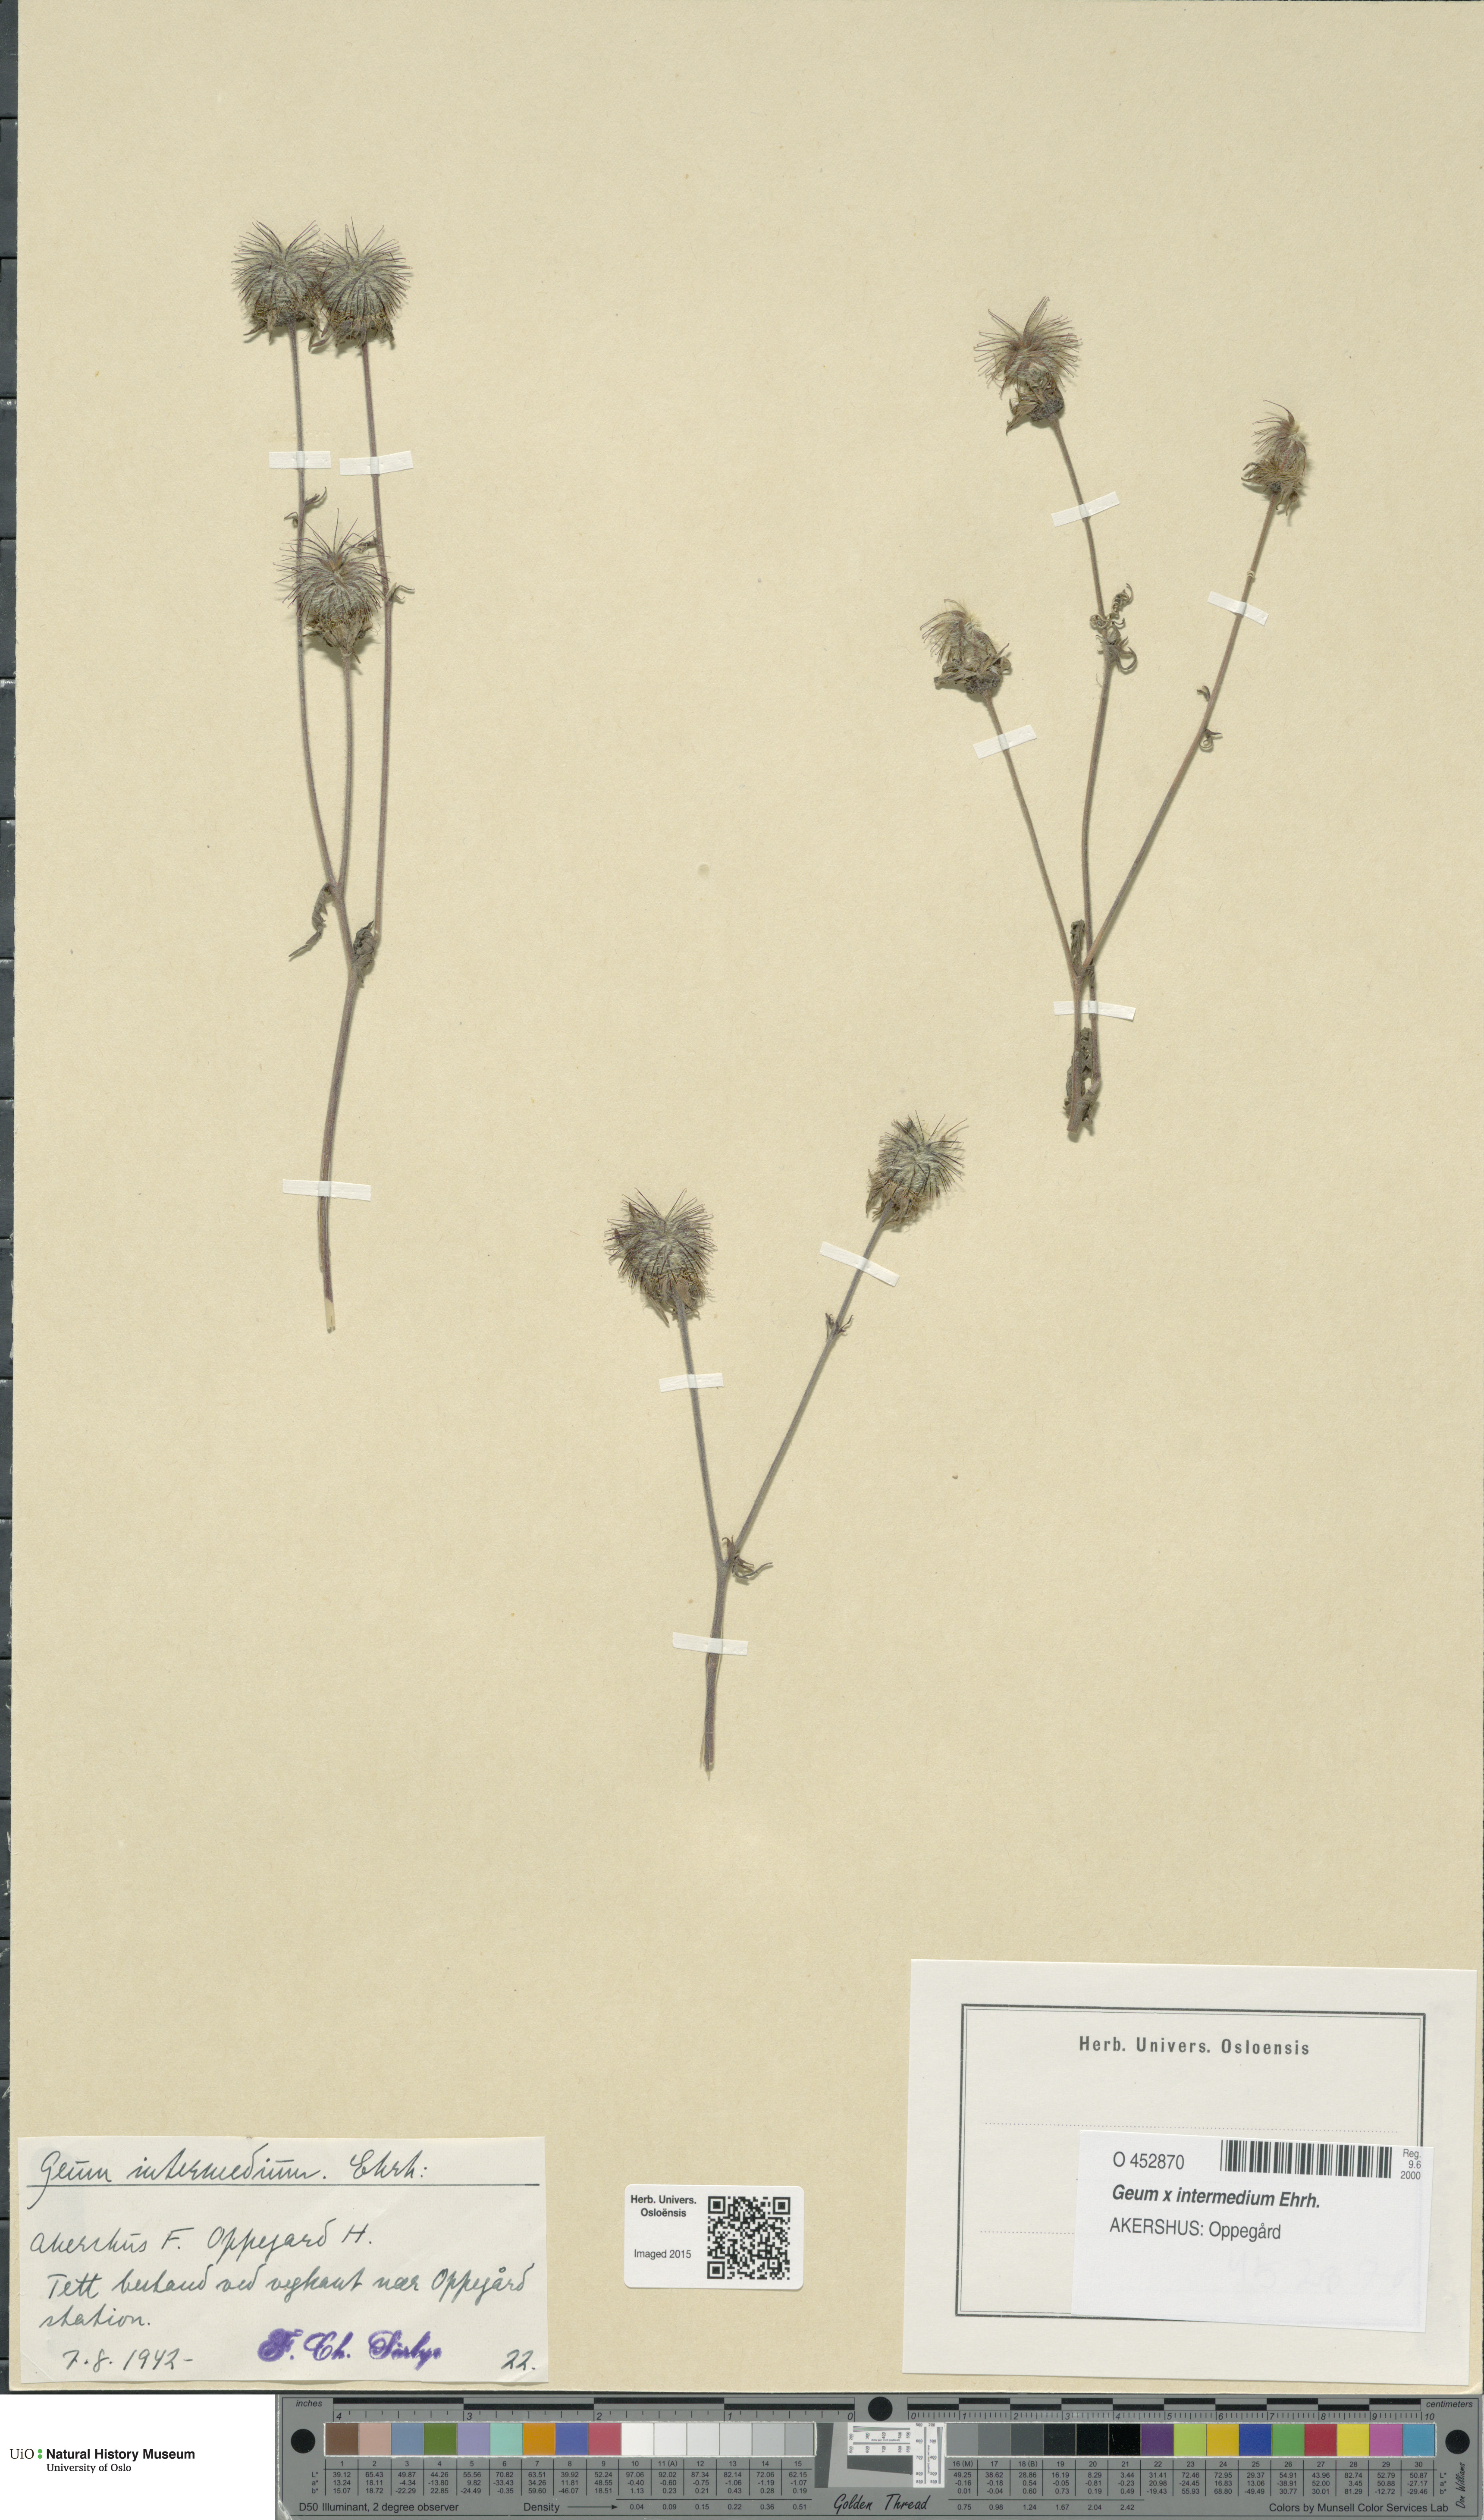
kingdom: Plantae
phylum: Tracheophyta
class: Magnoliopsida
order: Rosales
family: Rosaceae
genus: Geum
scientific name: Geum intermedium
